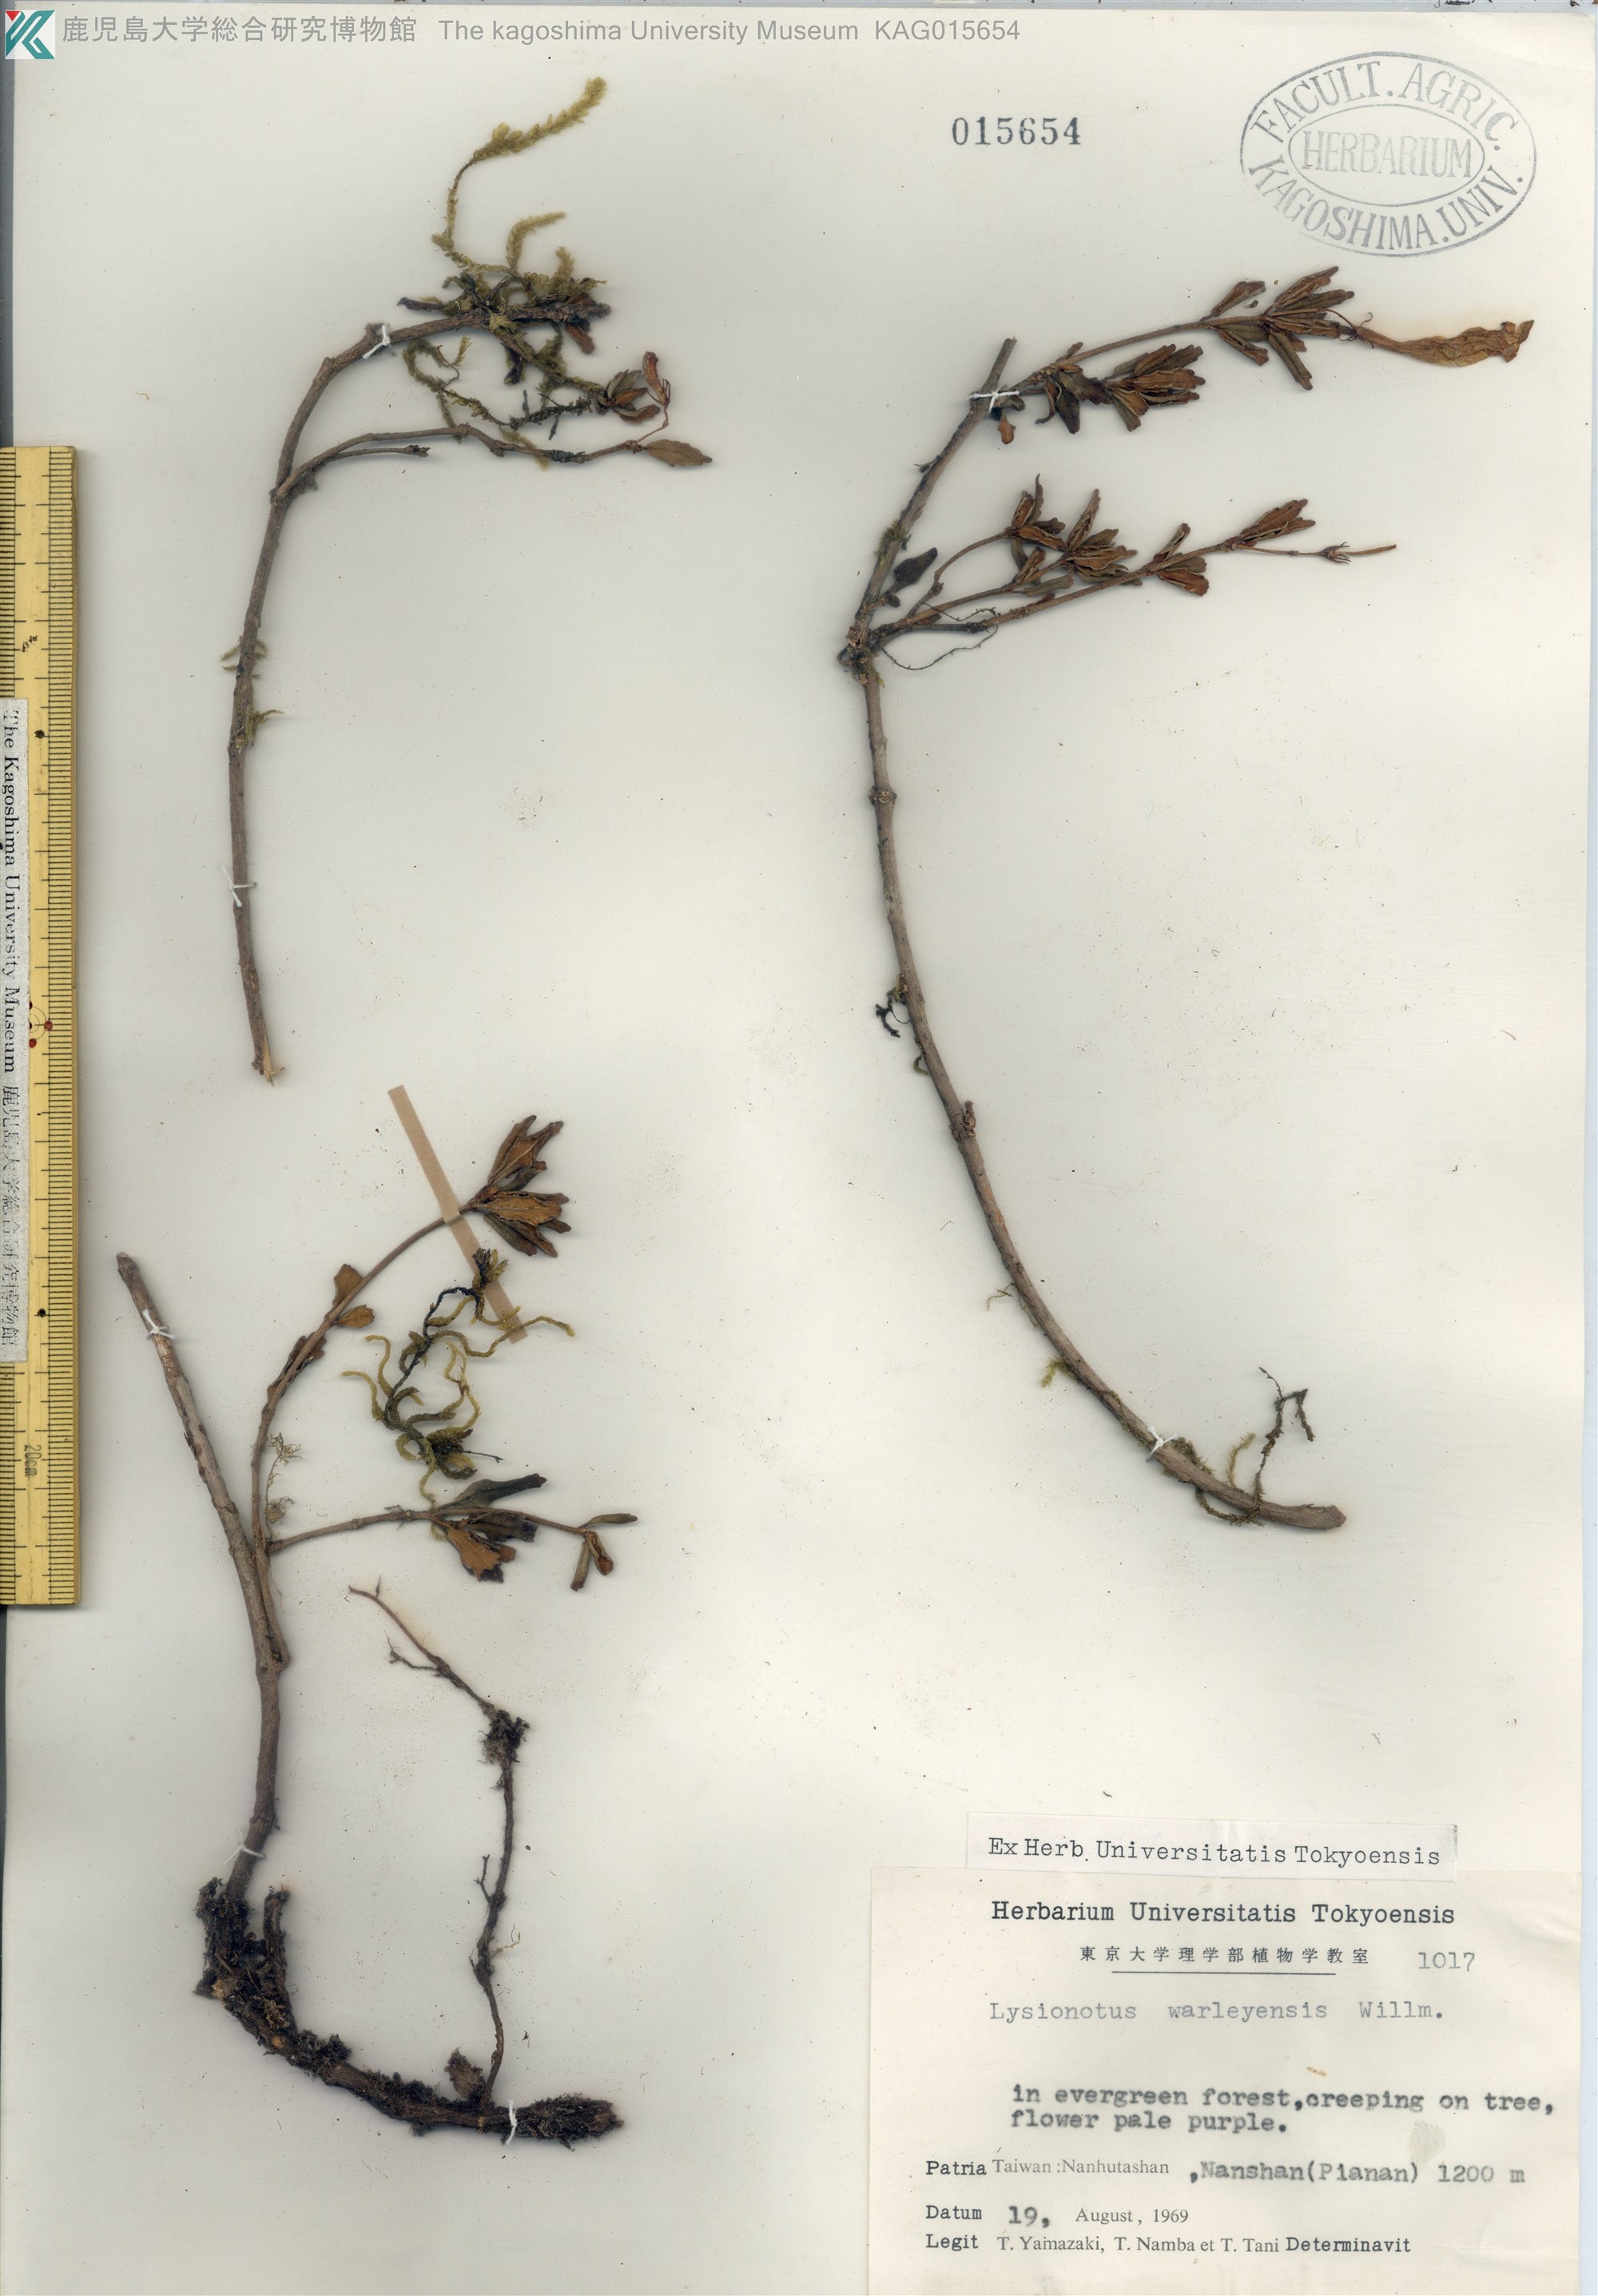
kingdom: Plantae
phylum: Tracheophyta
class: Magnoliopsida
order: Lamiales
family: Gesneriaceae
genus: Lysionotus
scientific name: Lysionotus pauciflorus
